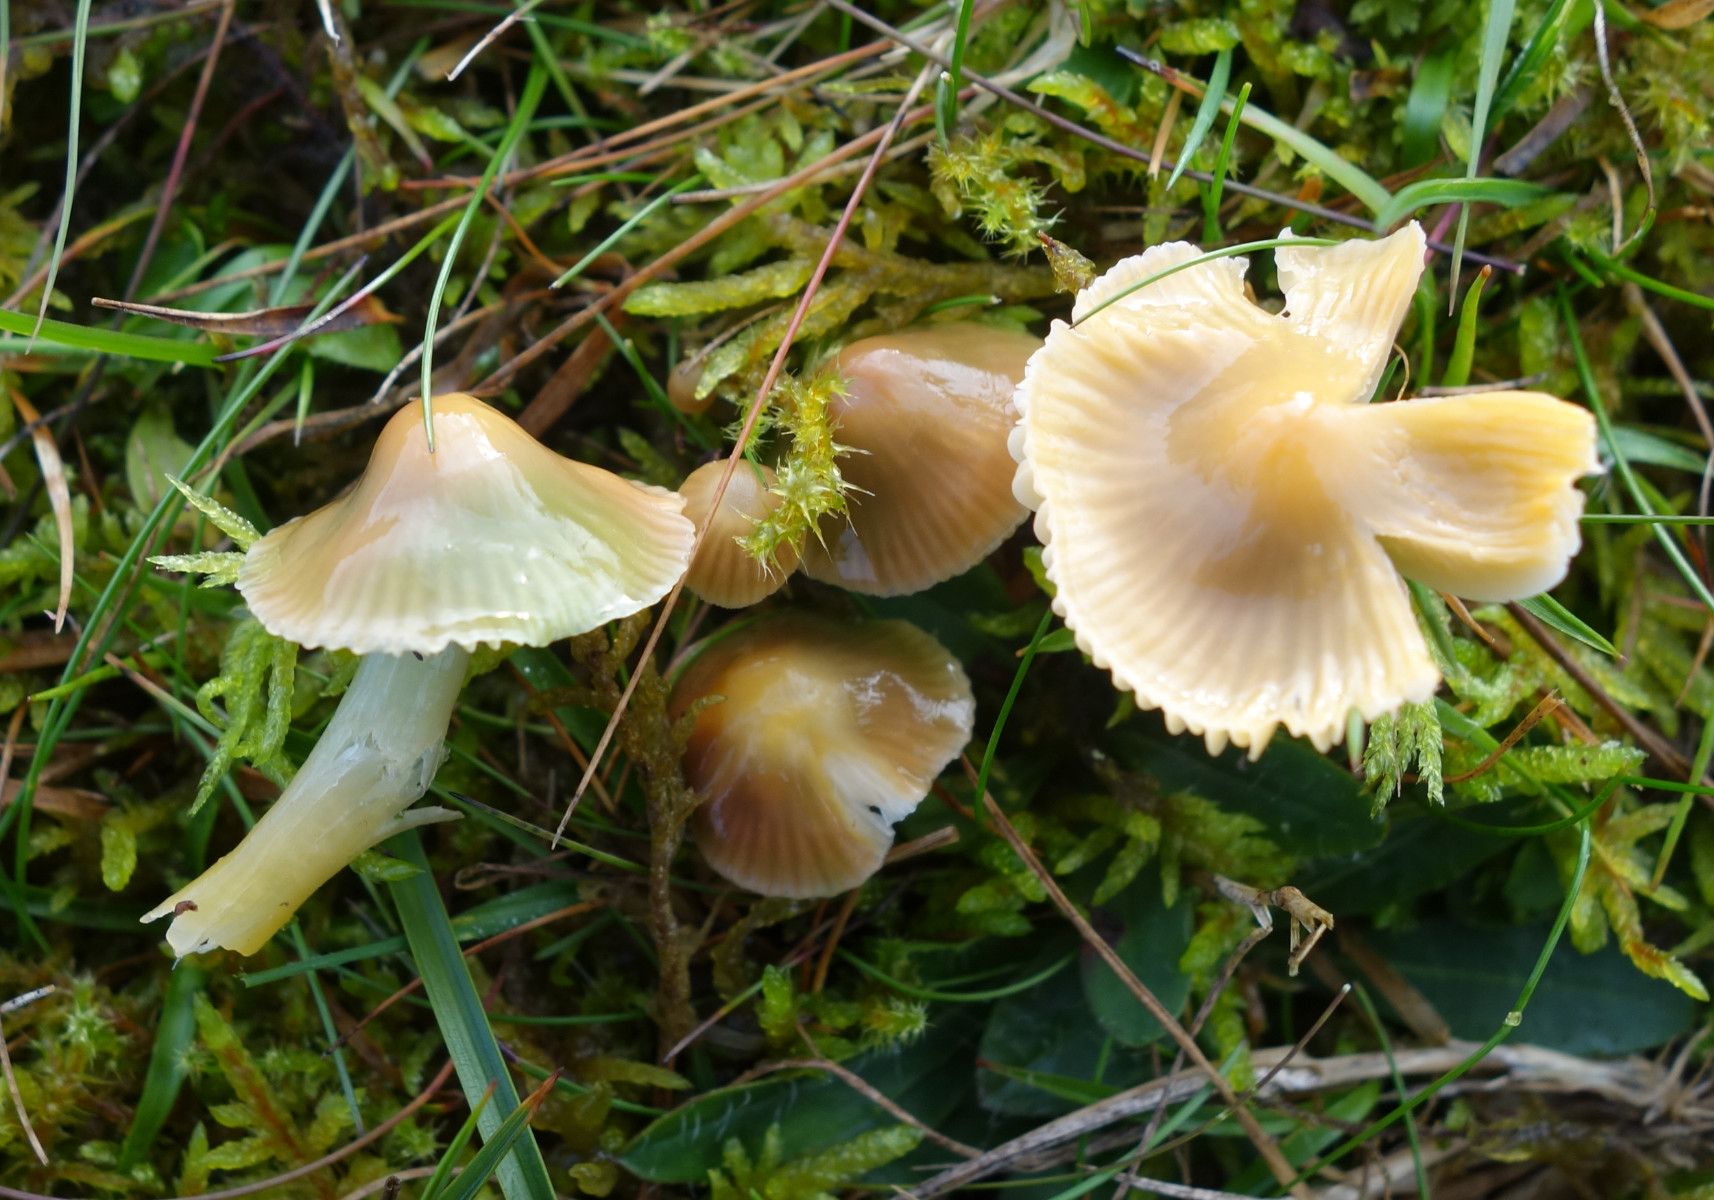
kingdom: Fungi
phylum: Basidiomycota
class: Agaricomycetes
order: Agaricales
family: Hygrophoraceae
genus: Gliophorus
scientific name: Gliophorus psittacinus
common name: papegøje-vokshat
